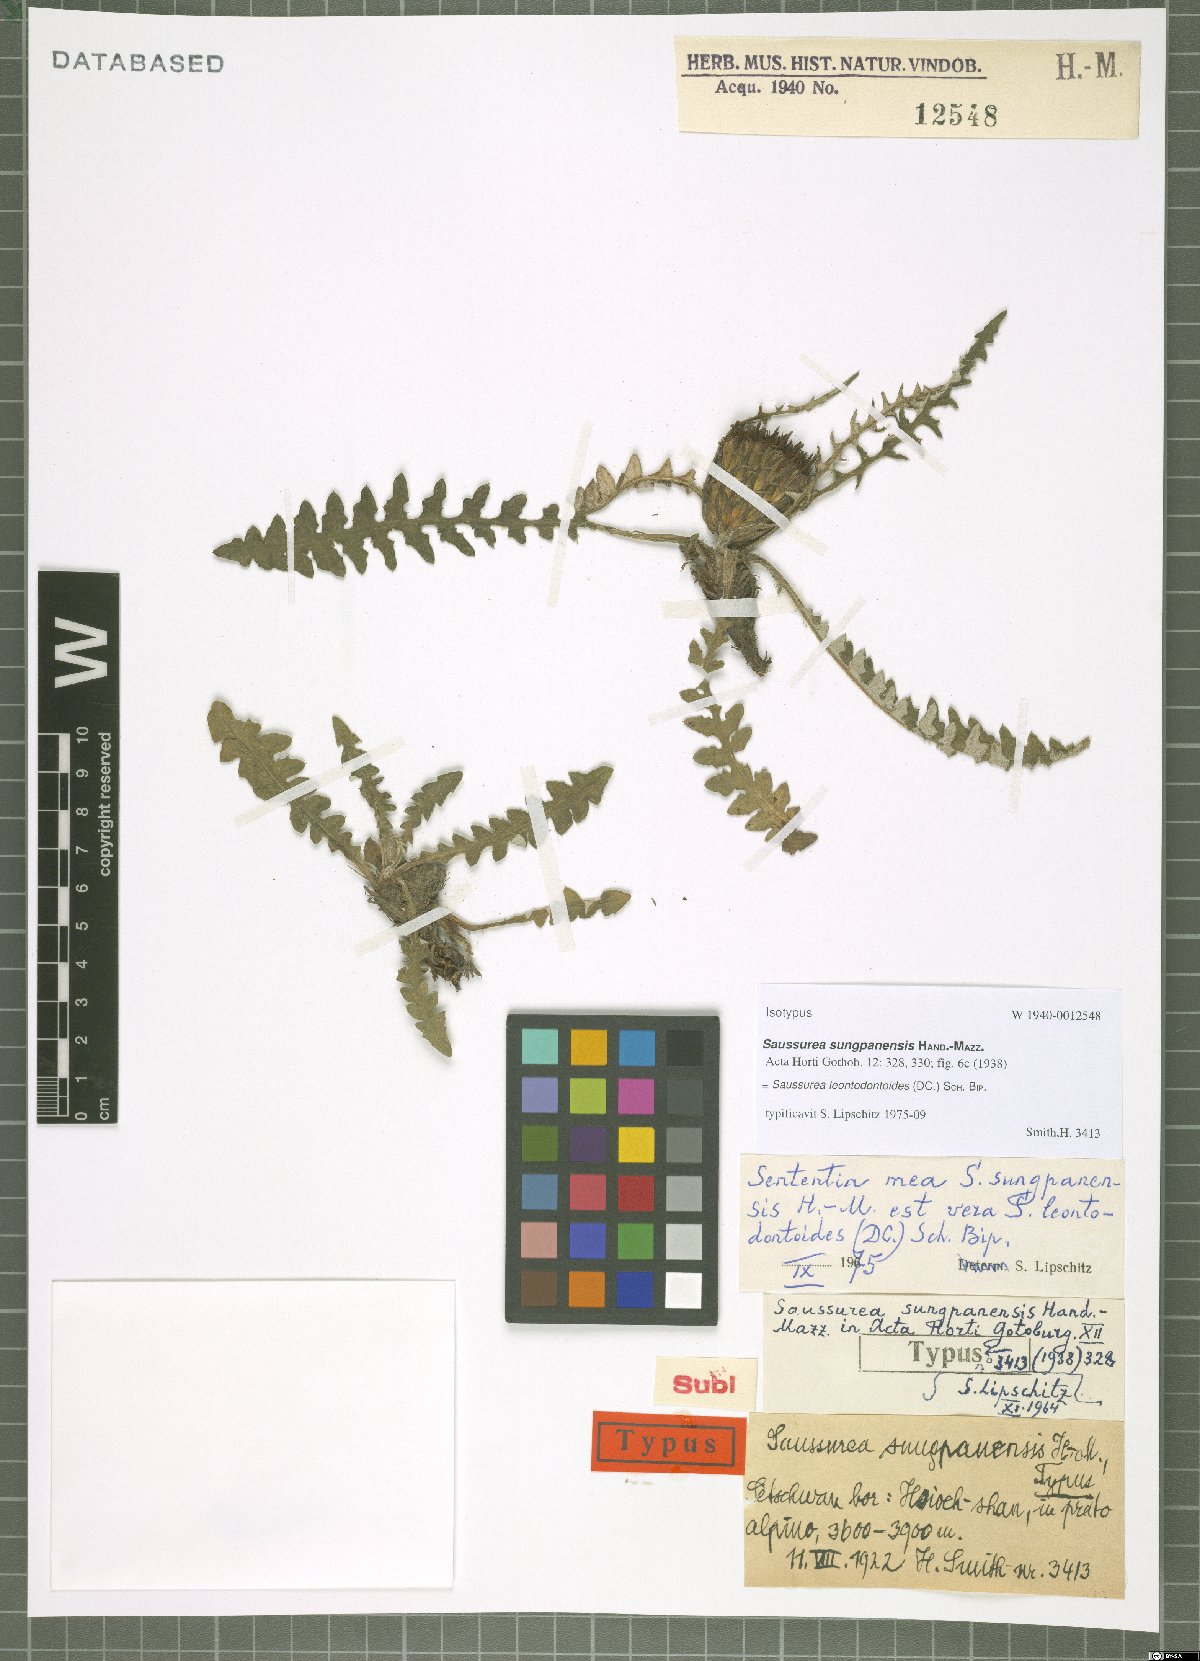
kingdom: Plantae
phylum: Tracheophyta
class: Magnoliopsida
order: Asterales
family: Asteraceae
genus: Saussurea
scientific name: Saussurea leontodontoides
